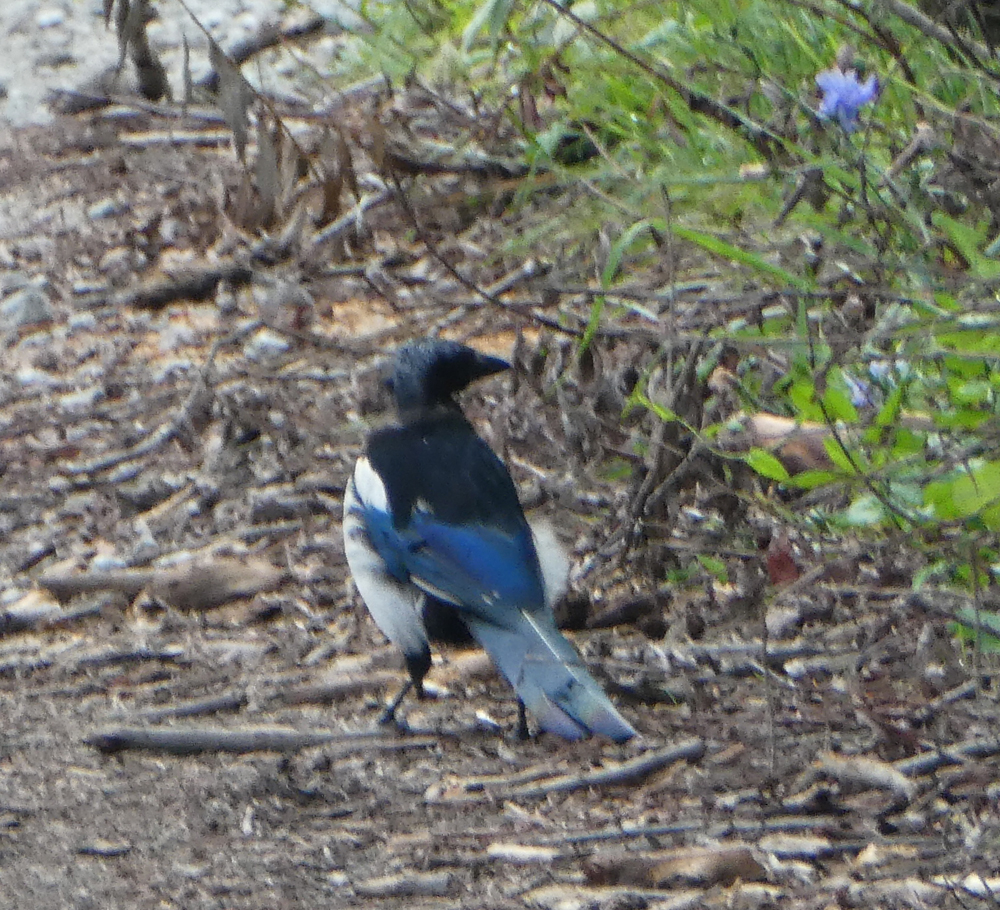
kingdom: Animalia
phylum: Chordata
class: Aves
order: Passeriformes
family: Corvidae
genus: Pica
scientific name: Pica pica
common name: Eurasian magpie
